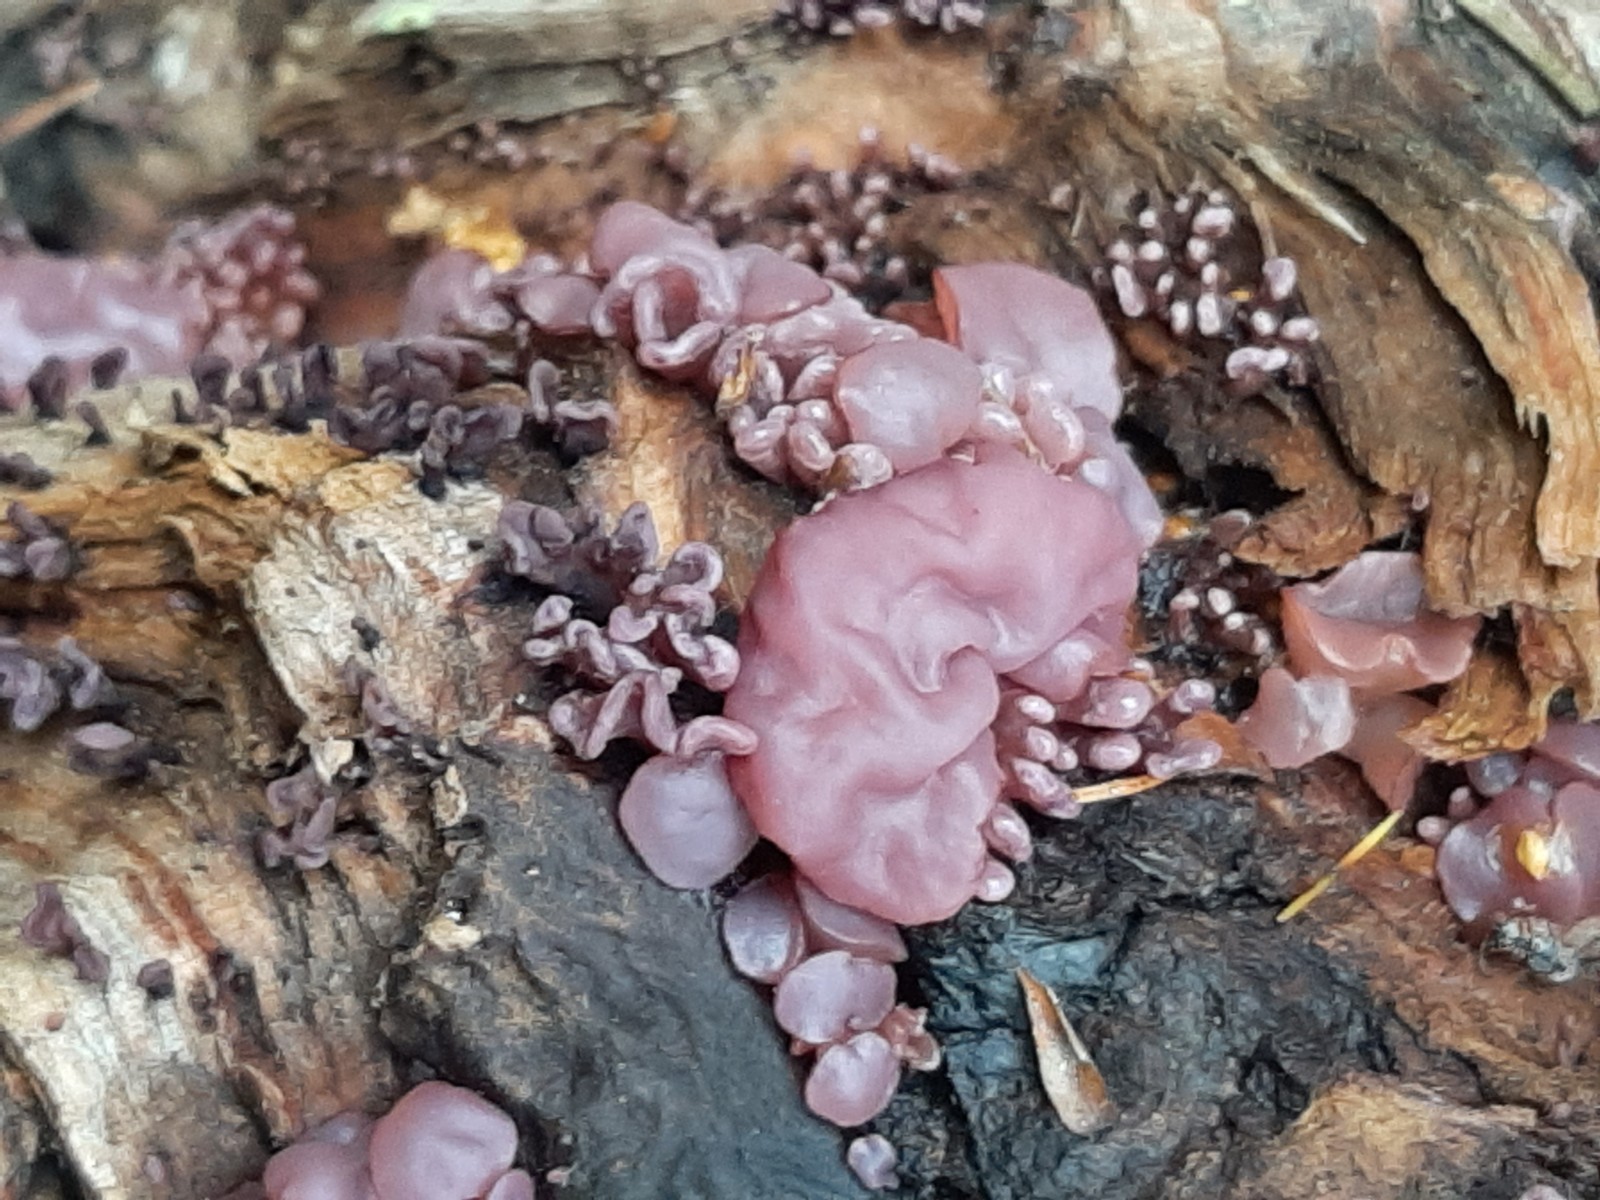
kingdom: Fungi
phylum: Ascomycota
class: Leotiomycetes
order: Helotiales
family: Gelatinodiscaceae
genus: Ascocoryne
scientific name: Ascocoryne sarcoides
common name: rødlilla sejskive
